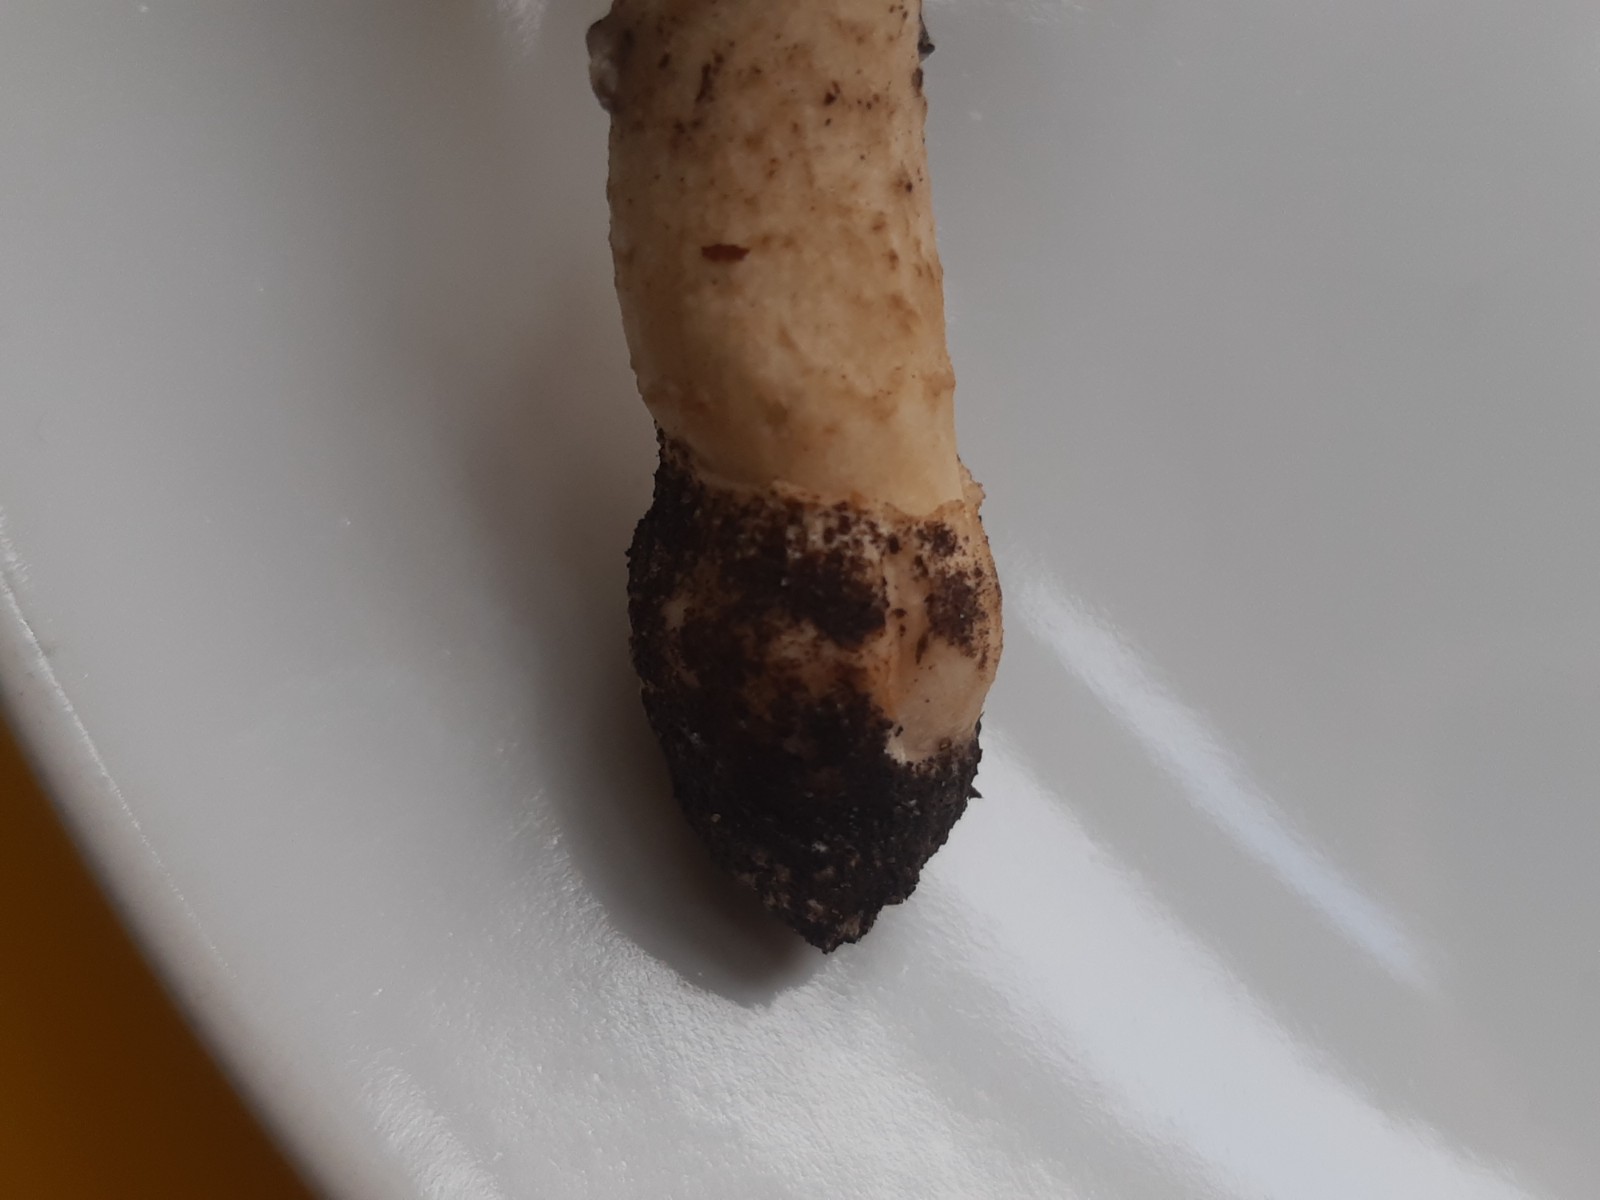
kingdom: Fungi
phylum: Basidiomycota
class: Agaricomycetes
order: Agaricales
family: Amanitaceae
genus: Amanita
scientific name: Amanita
